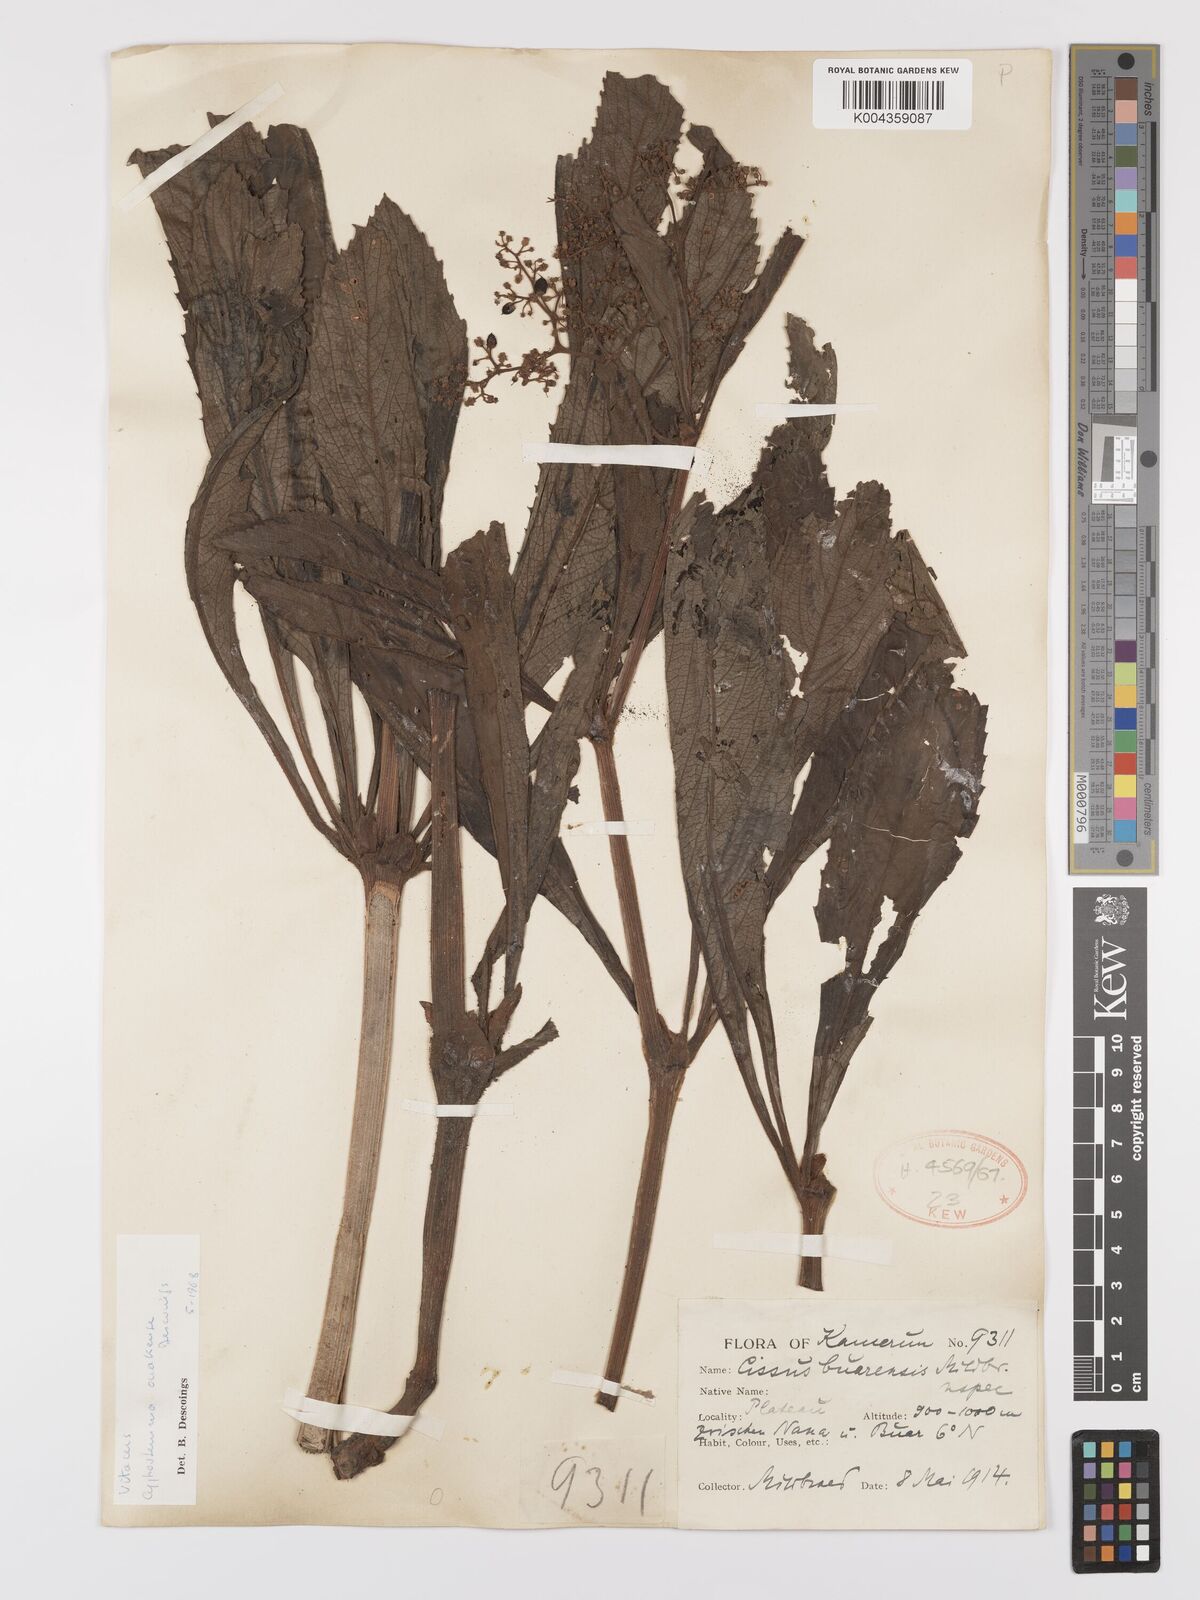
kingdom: Plantae
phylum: Tracheophyta
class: Magnoliopsida
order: Vitales
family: Vitaceae
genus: Cyphostemma
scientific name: Cyphostemma ouakense
